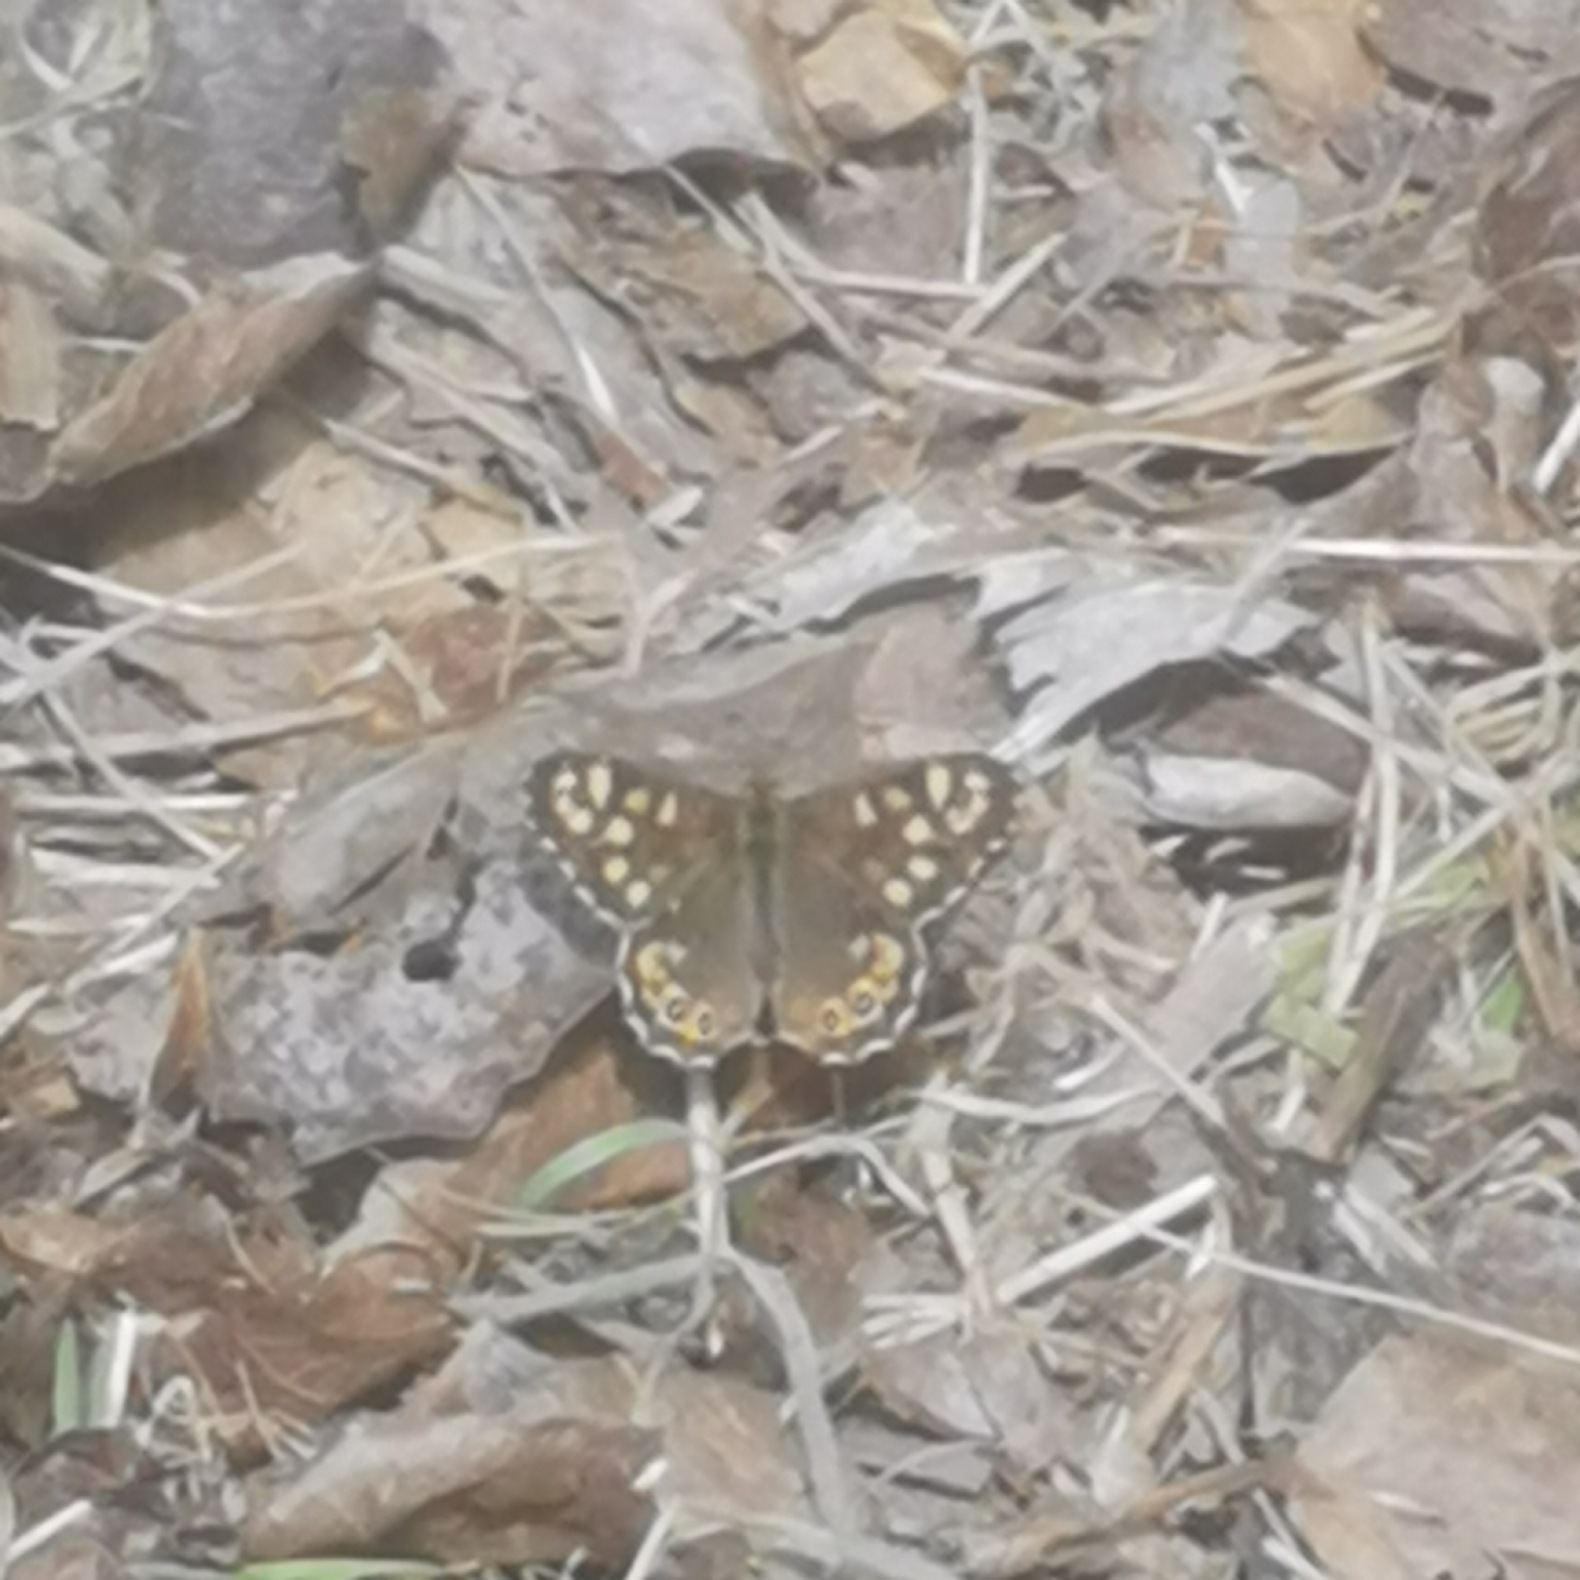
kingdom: Animalia
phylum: Arthropoda
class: Insecta
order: Lepidoptera
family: Nymphalidae
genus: Pararge
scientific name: Pararge aegeria
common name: Skovrandøje
